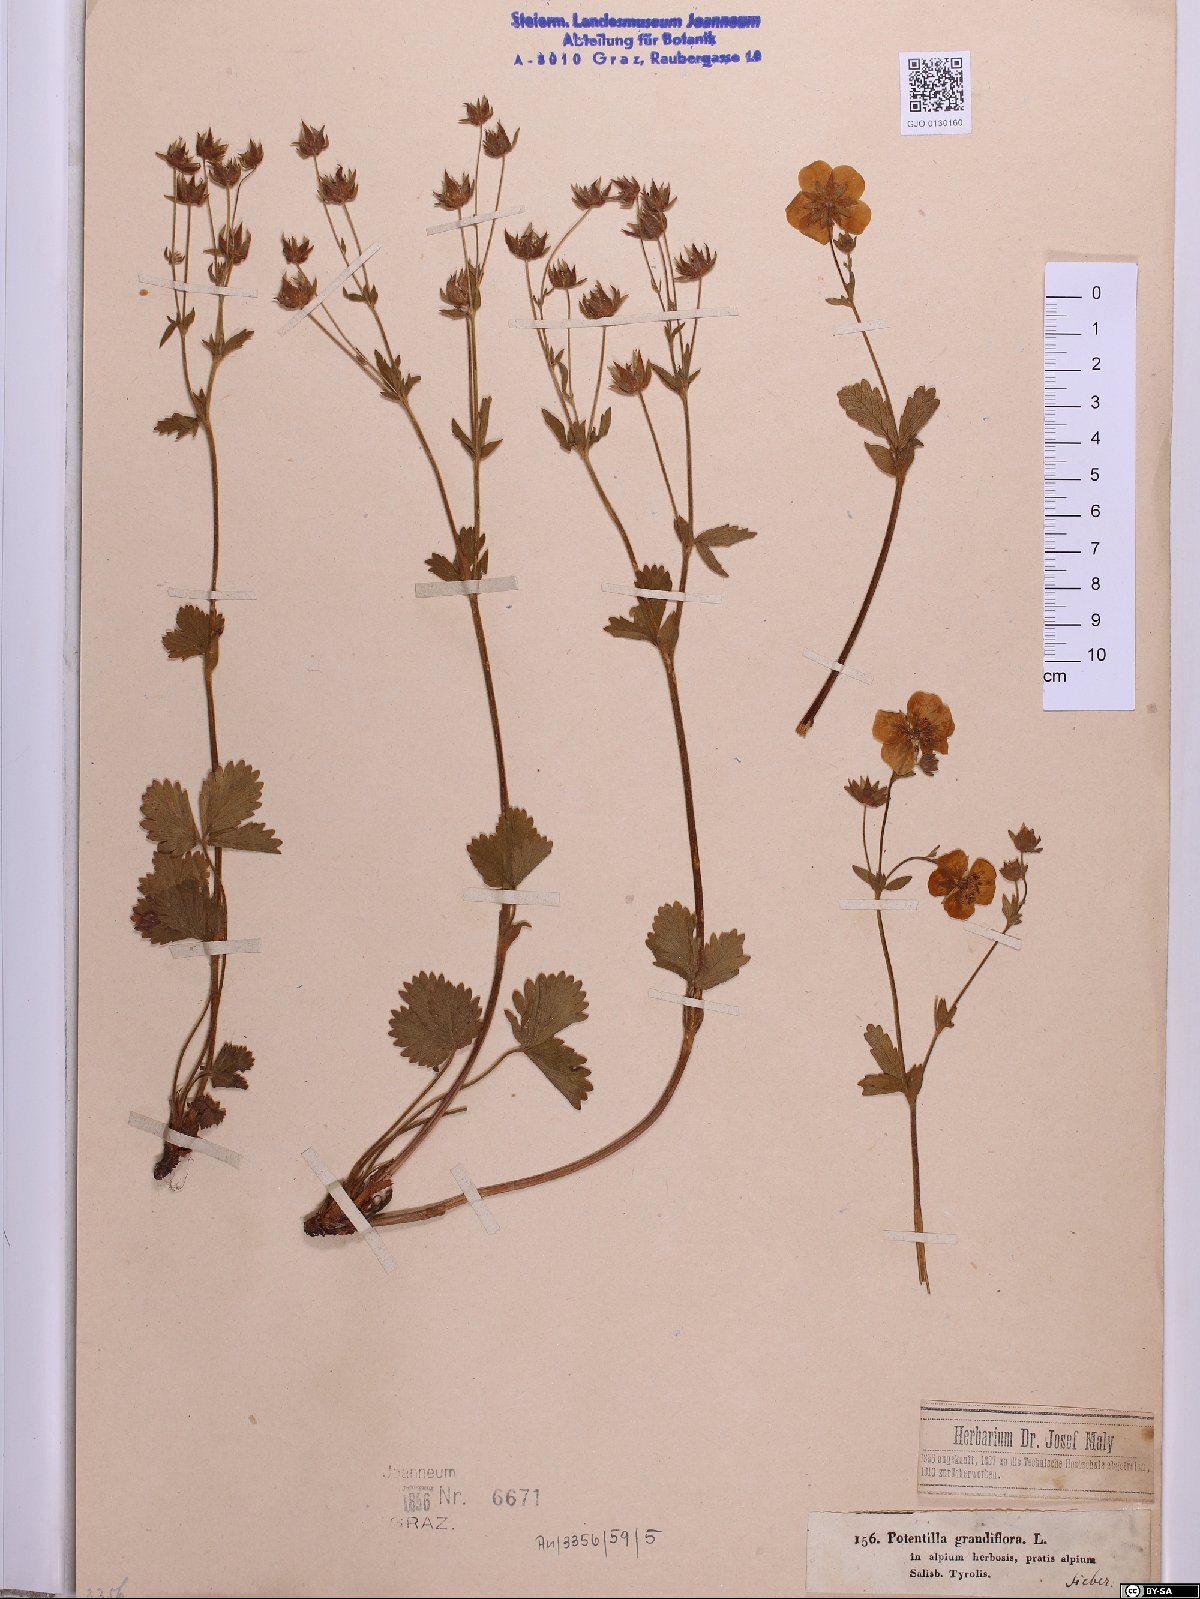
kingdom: Plantae
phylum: Tracheophyta
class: Magnoliopsida
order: Rosales
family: Rosaceae
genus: Potentilla
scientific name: Potentilla grandiflora
